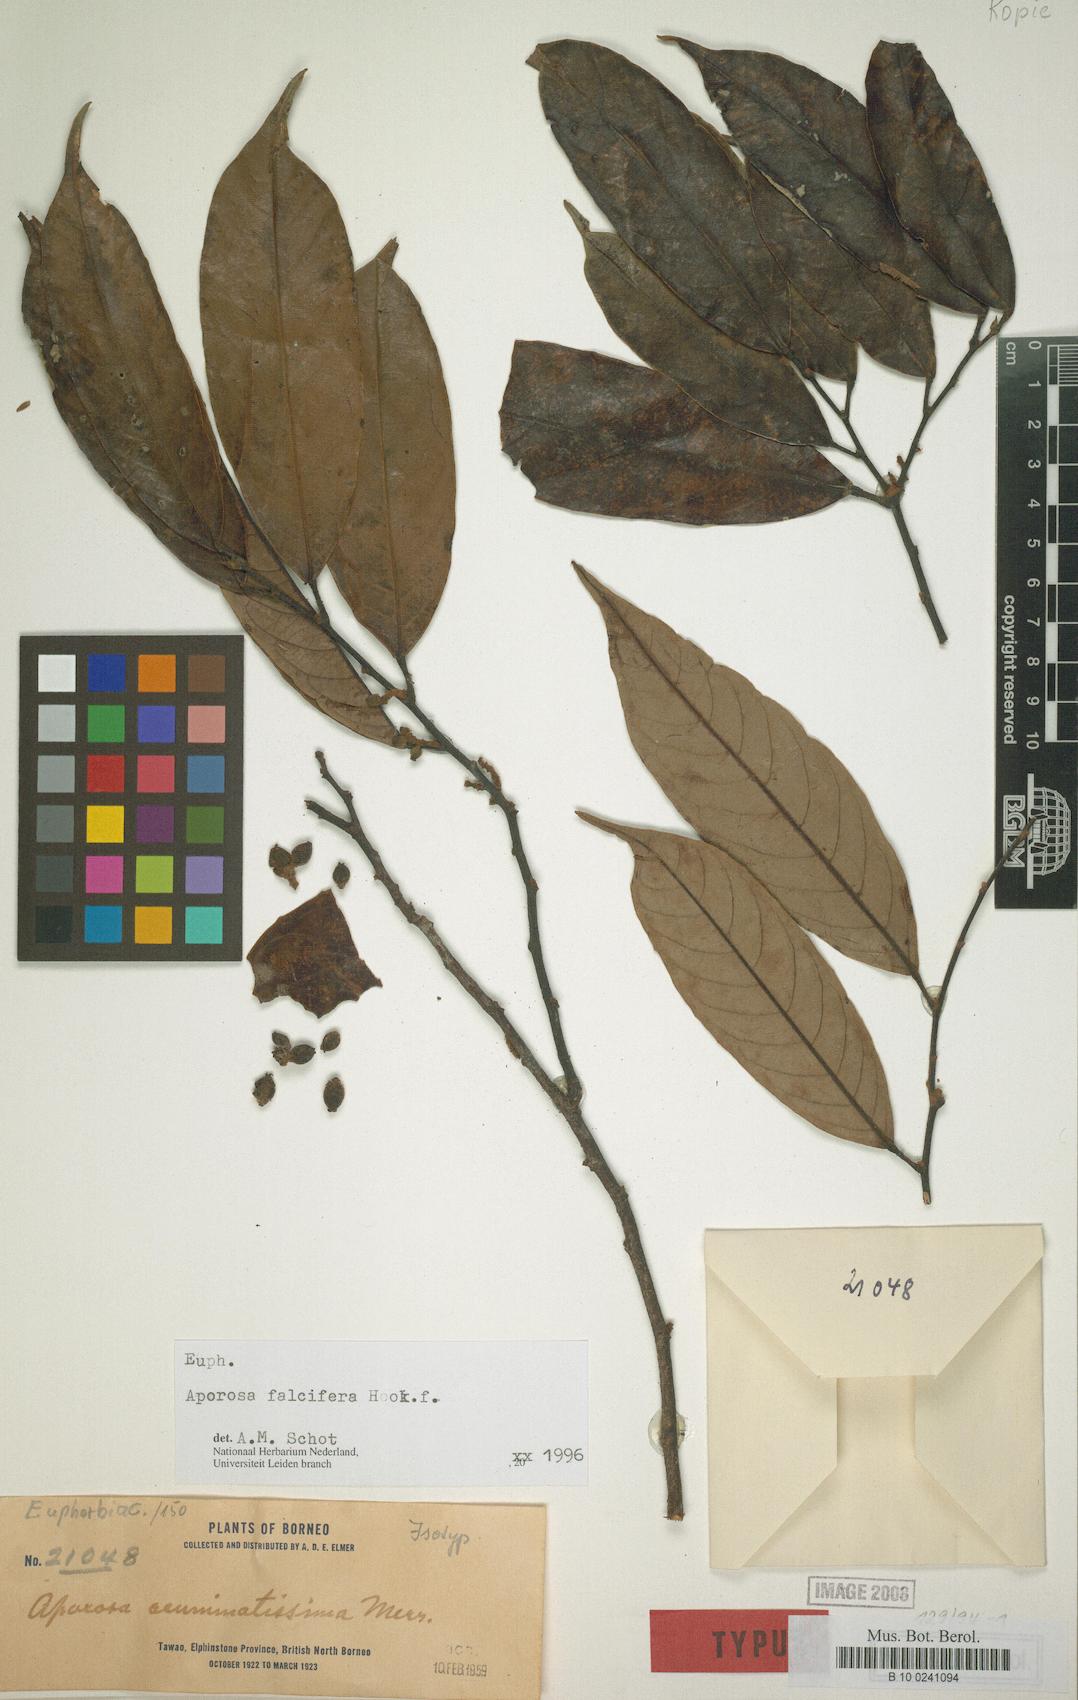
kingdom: Plantae
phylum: Tracheophyta
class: Magnoliopsida
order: Malpighiales
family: Phyllanthaceae
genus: Aporosa
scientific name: Aporosa falcifera
